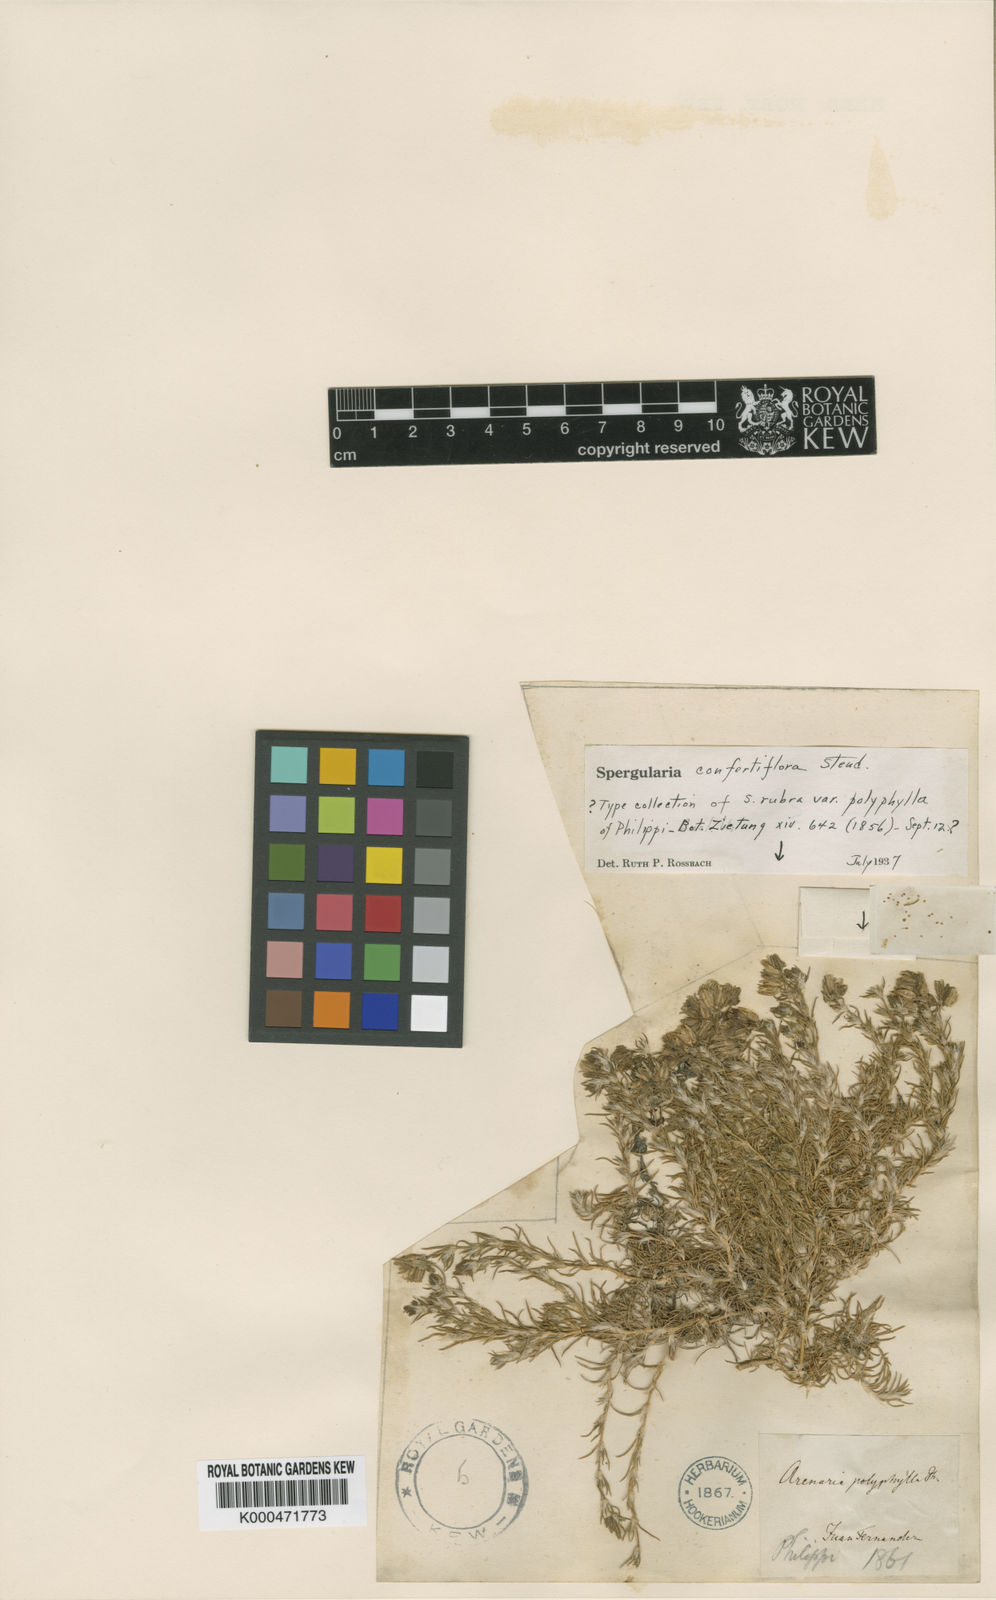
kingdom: Plantae
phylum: Tracheophyta
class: Magnoliopsida
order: Caryophyllales
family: Caryophyllaceae
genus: Spergularia
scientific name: Spergularia confertiflora
